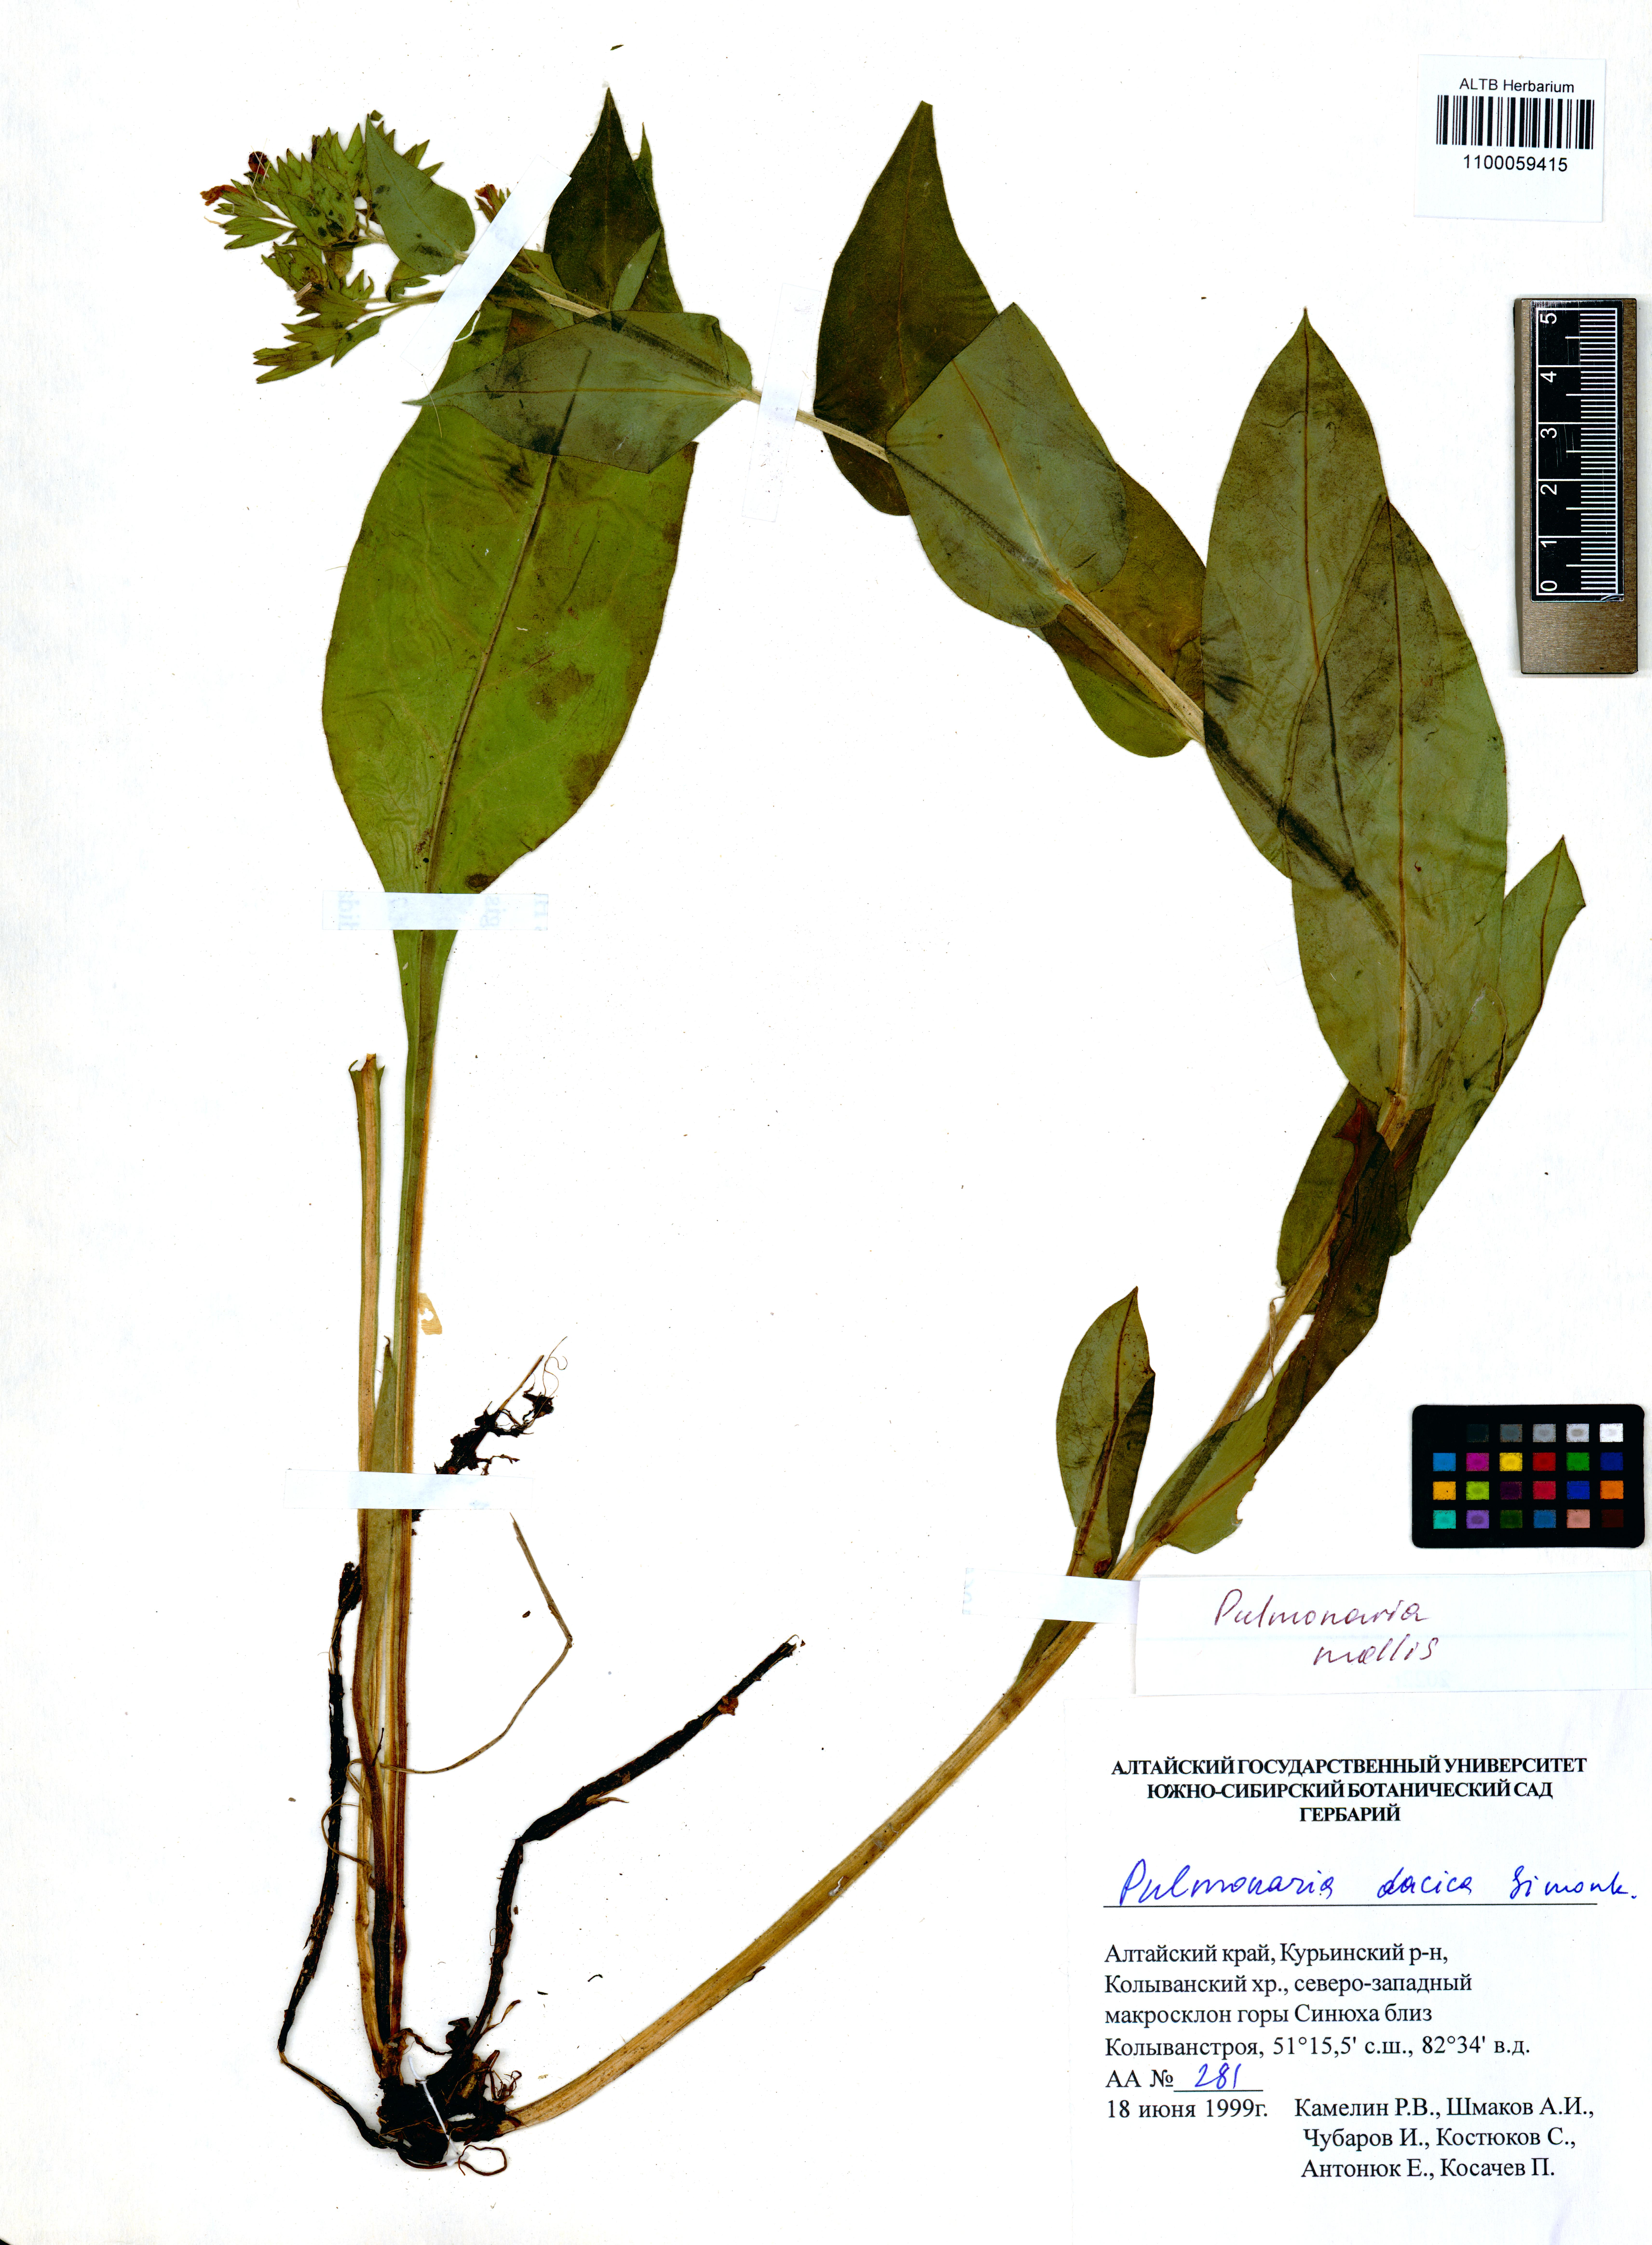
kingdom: Plantae
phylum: Tracheophyta
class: Magnoliopsida
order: Boraginales
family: Boraginaceae
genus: Pulmonaria
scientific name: Pulmonaria mollis
